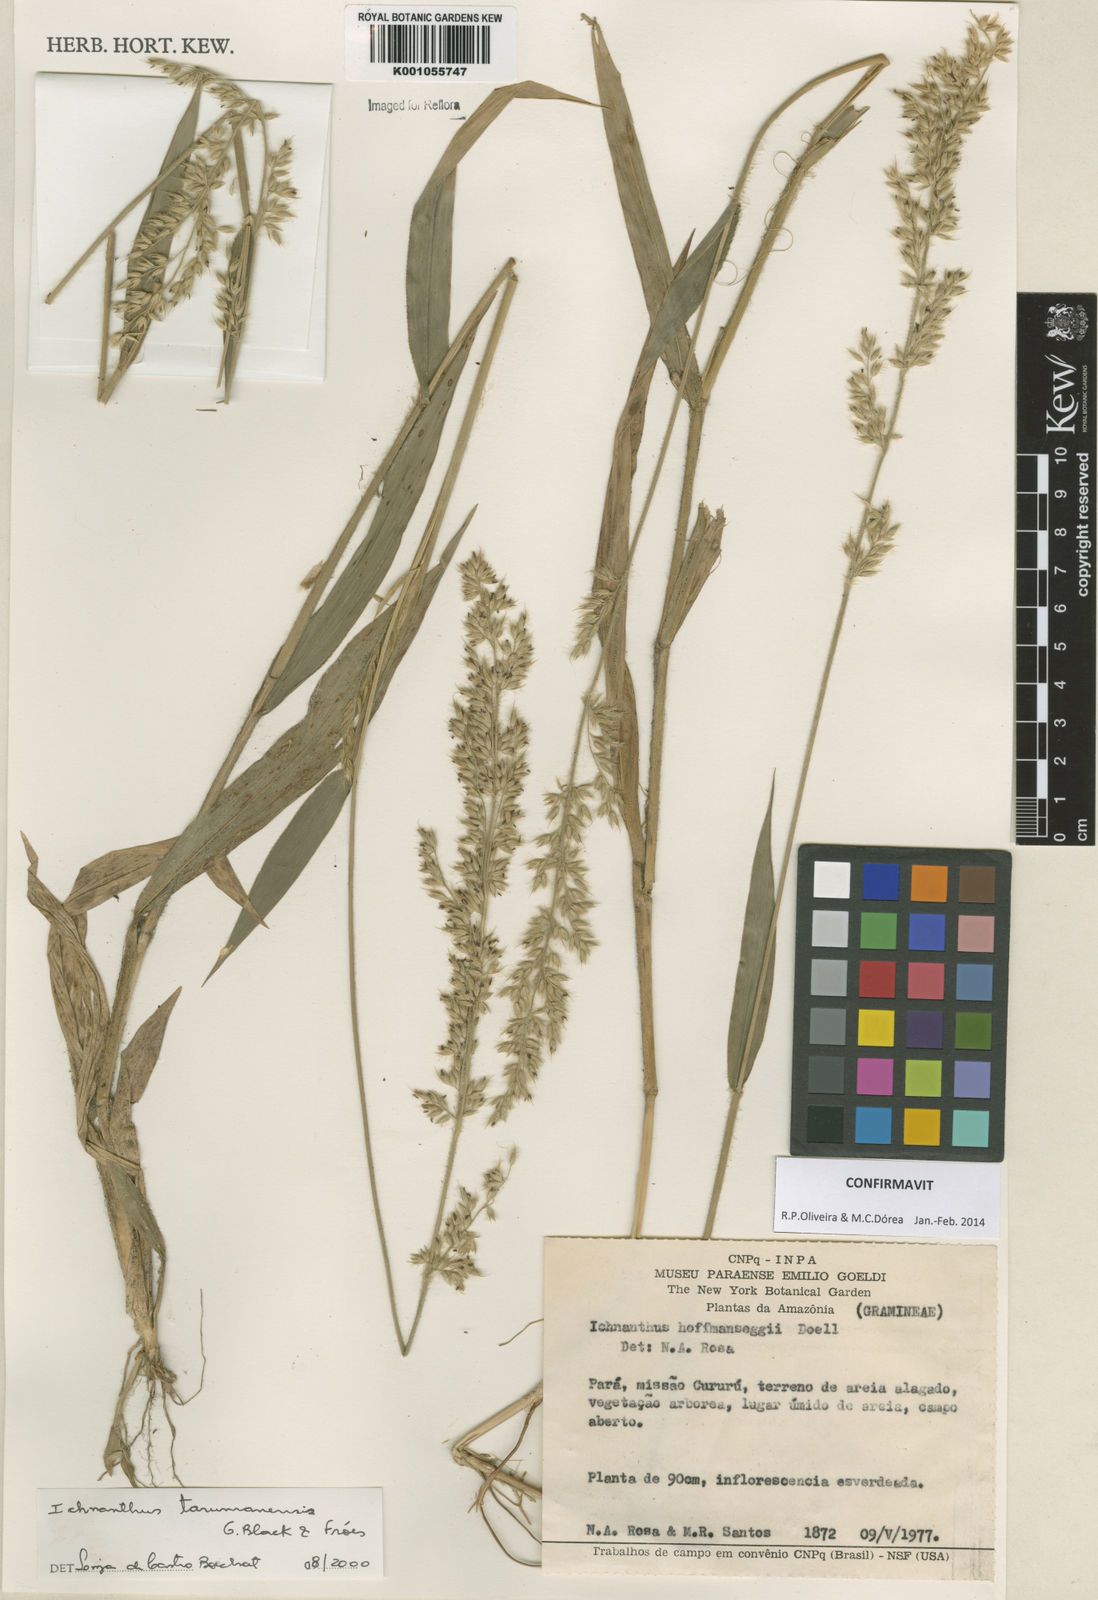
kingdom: Plantae
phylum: Tracheophyta
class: Liliopsida
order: Poales
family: Poaceae
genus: Ichnanthus
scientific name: Ichnanthus
